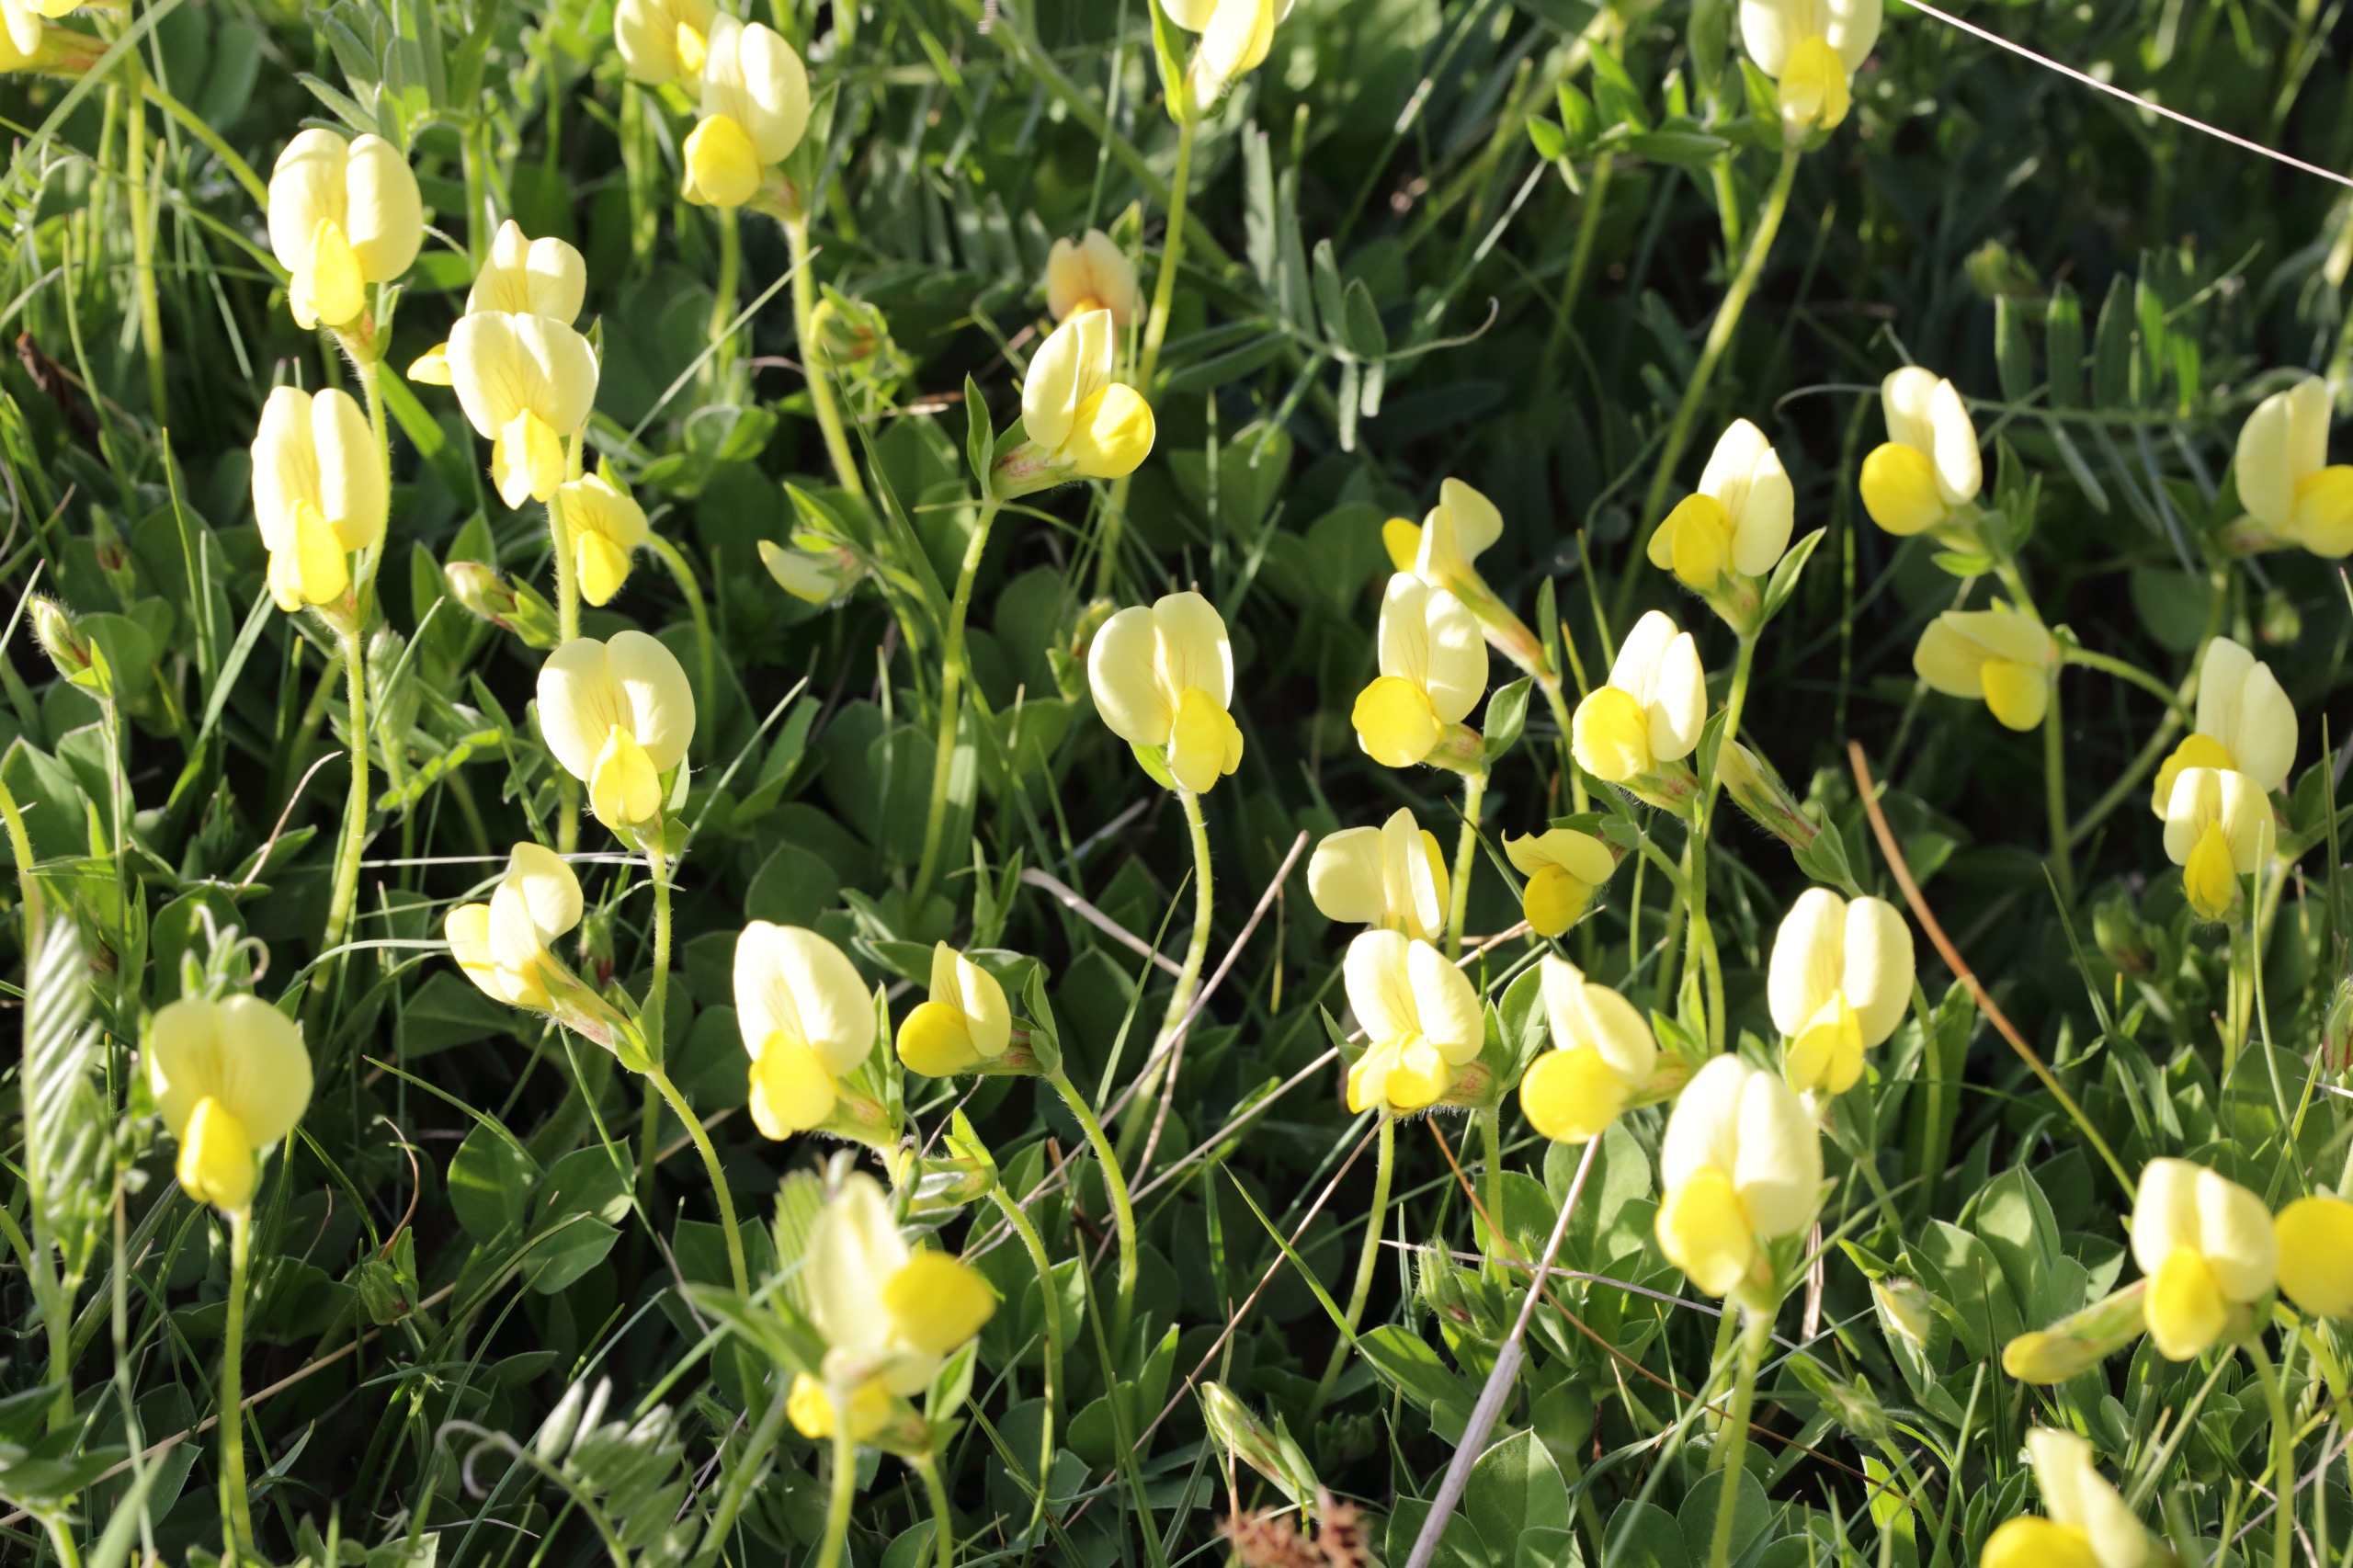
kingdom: Plantae
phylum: Tracheophyta
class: Magnoliopsida
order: Fabales
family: Fabaceae
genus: Lotus
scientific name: Lotus maritimus
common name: Kantbælg
